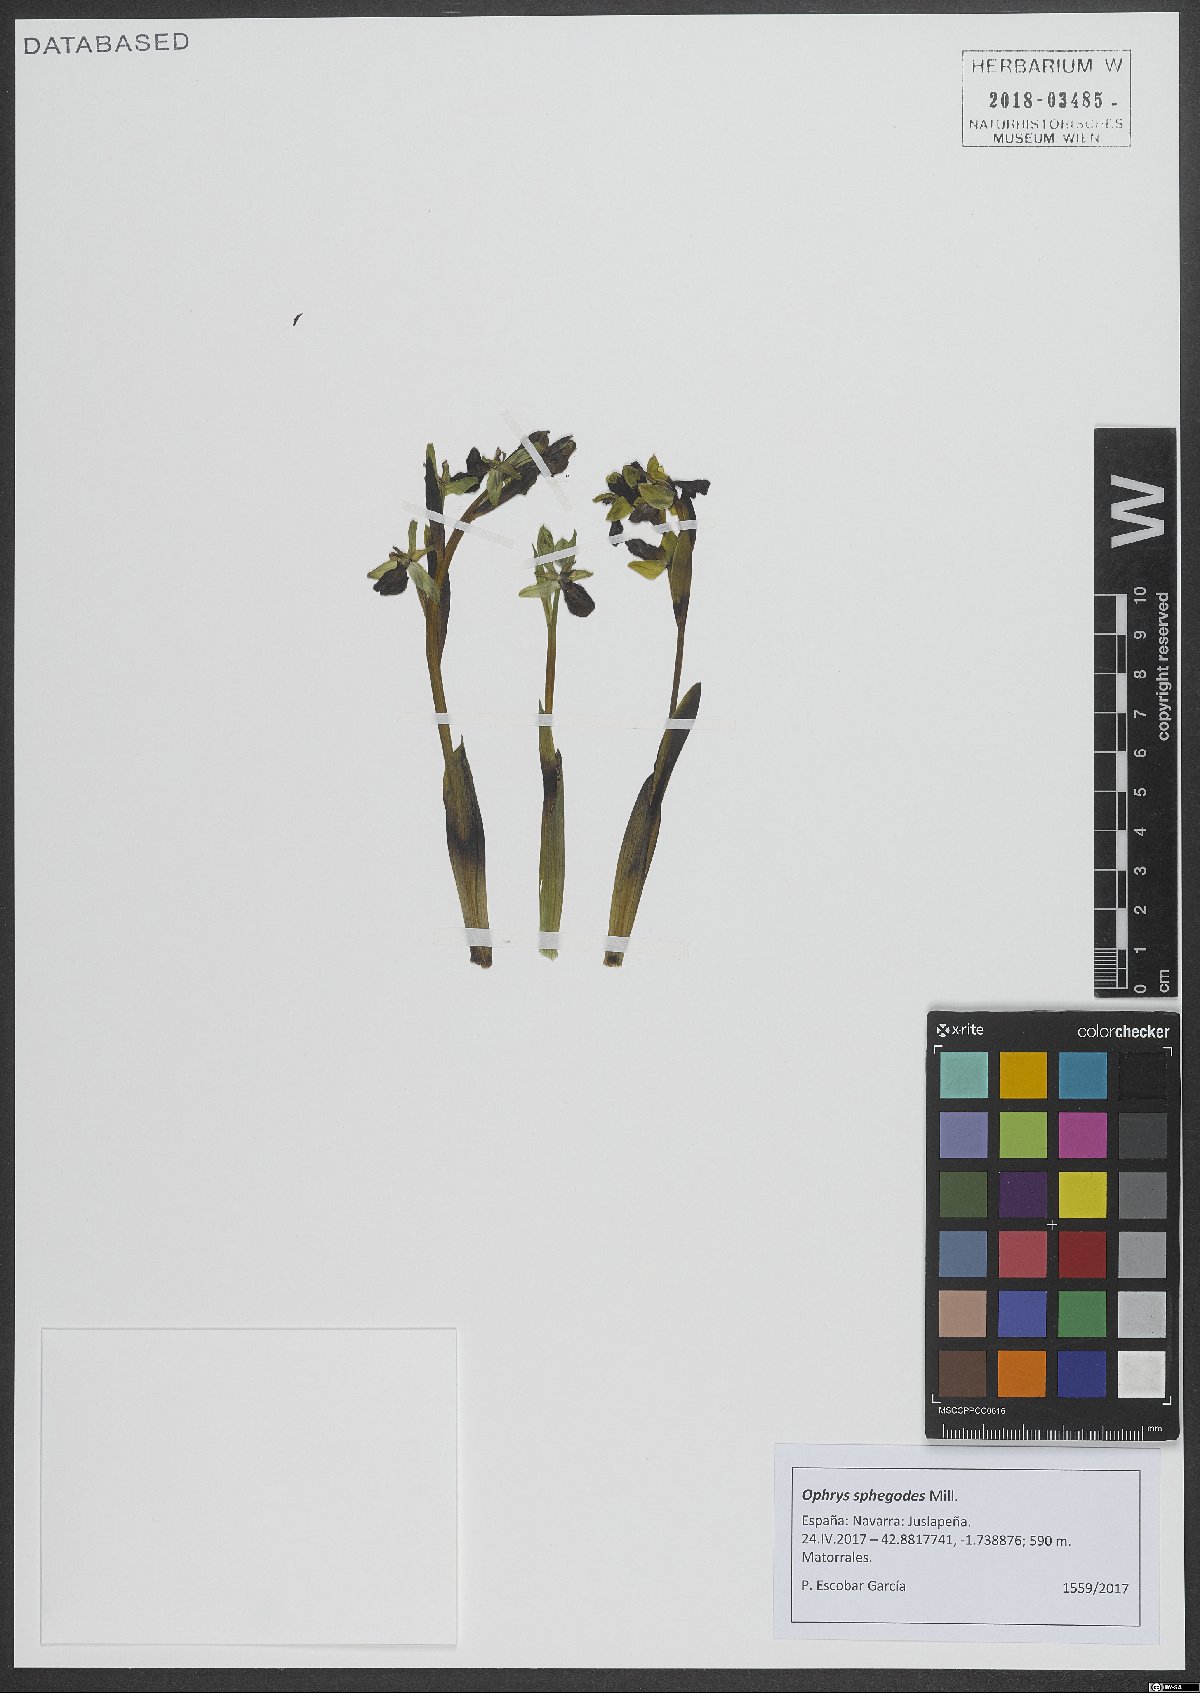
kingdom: Plantae
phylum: Tracheophyta
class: Liliopsida
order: Asparagales
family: Orchidaceae
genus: Ophrys
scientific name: Ophrys sphegodes
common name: Early spider-orchid
